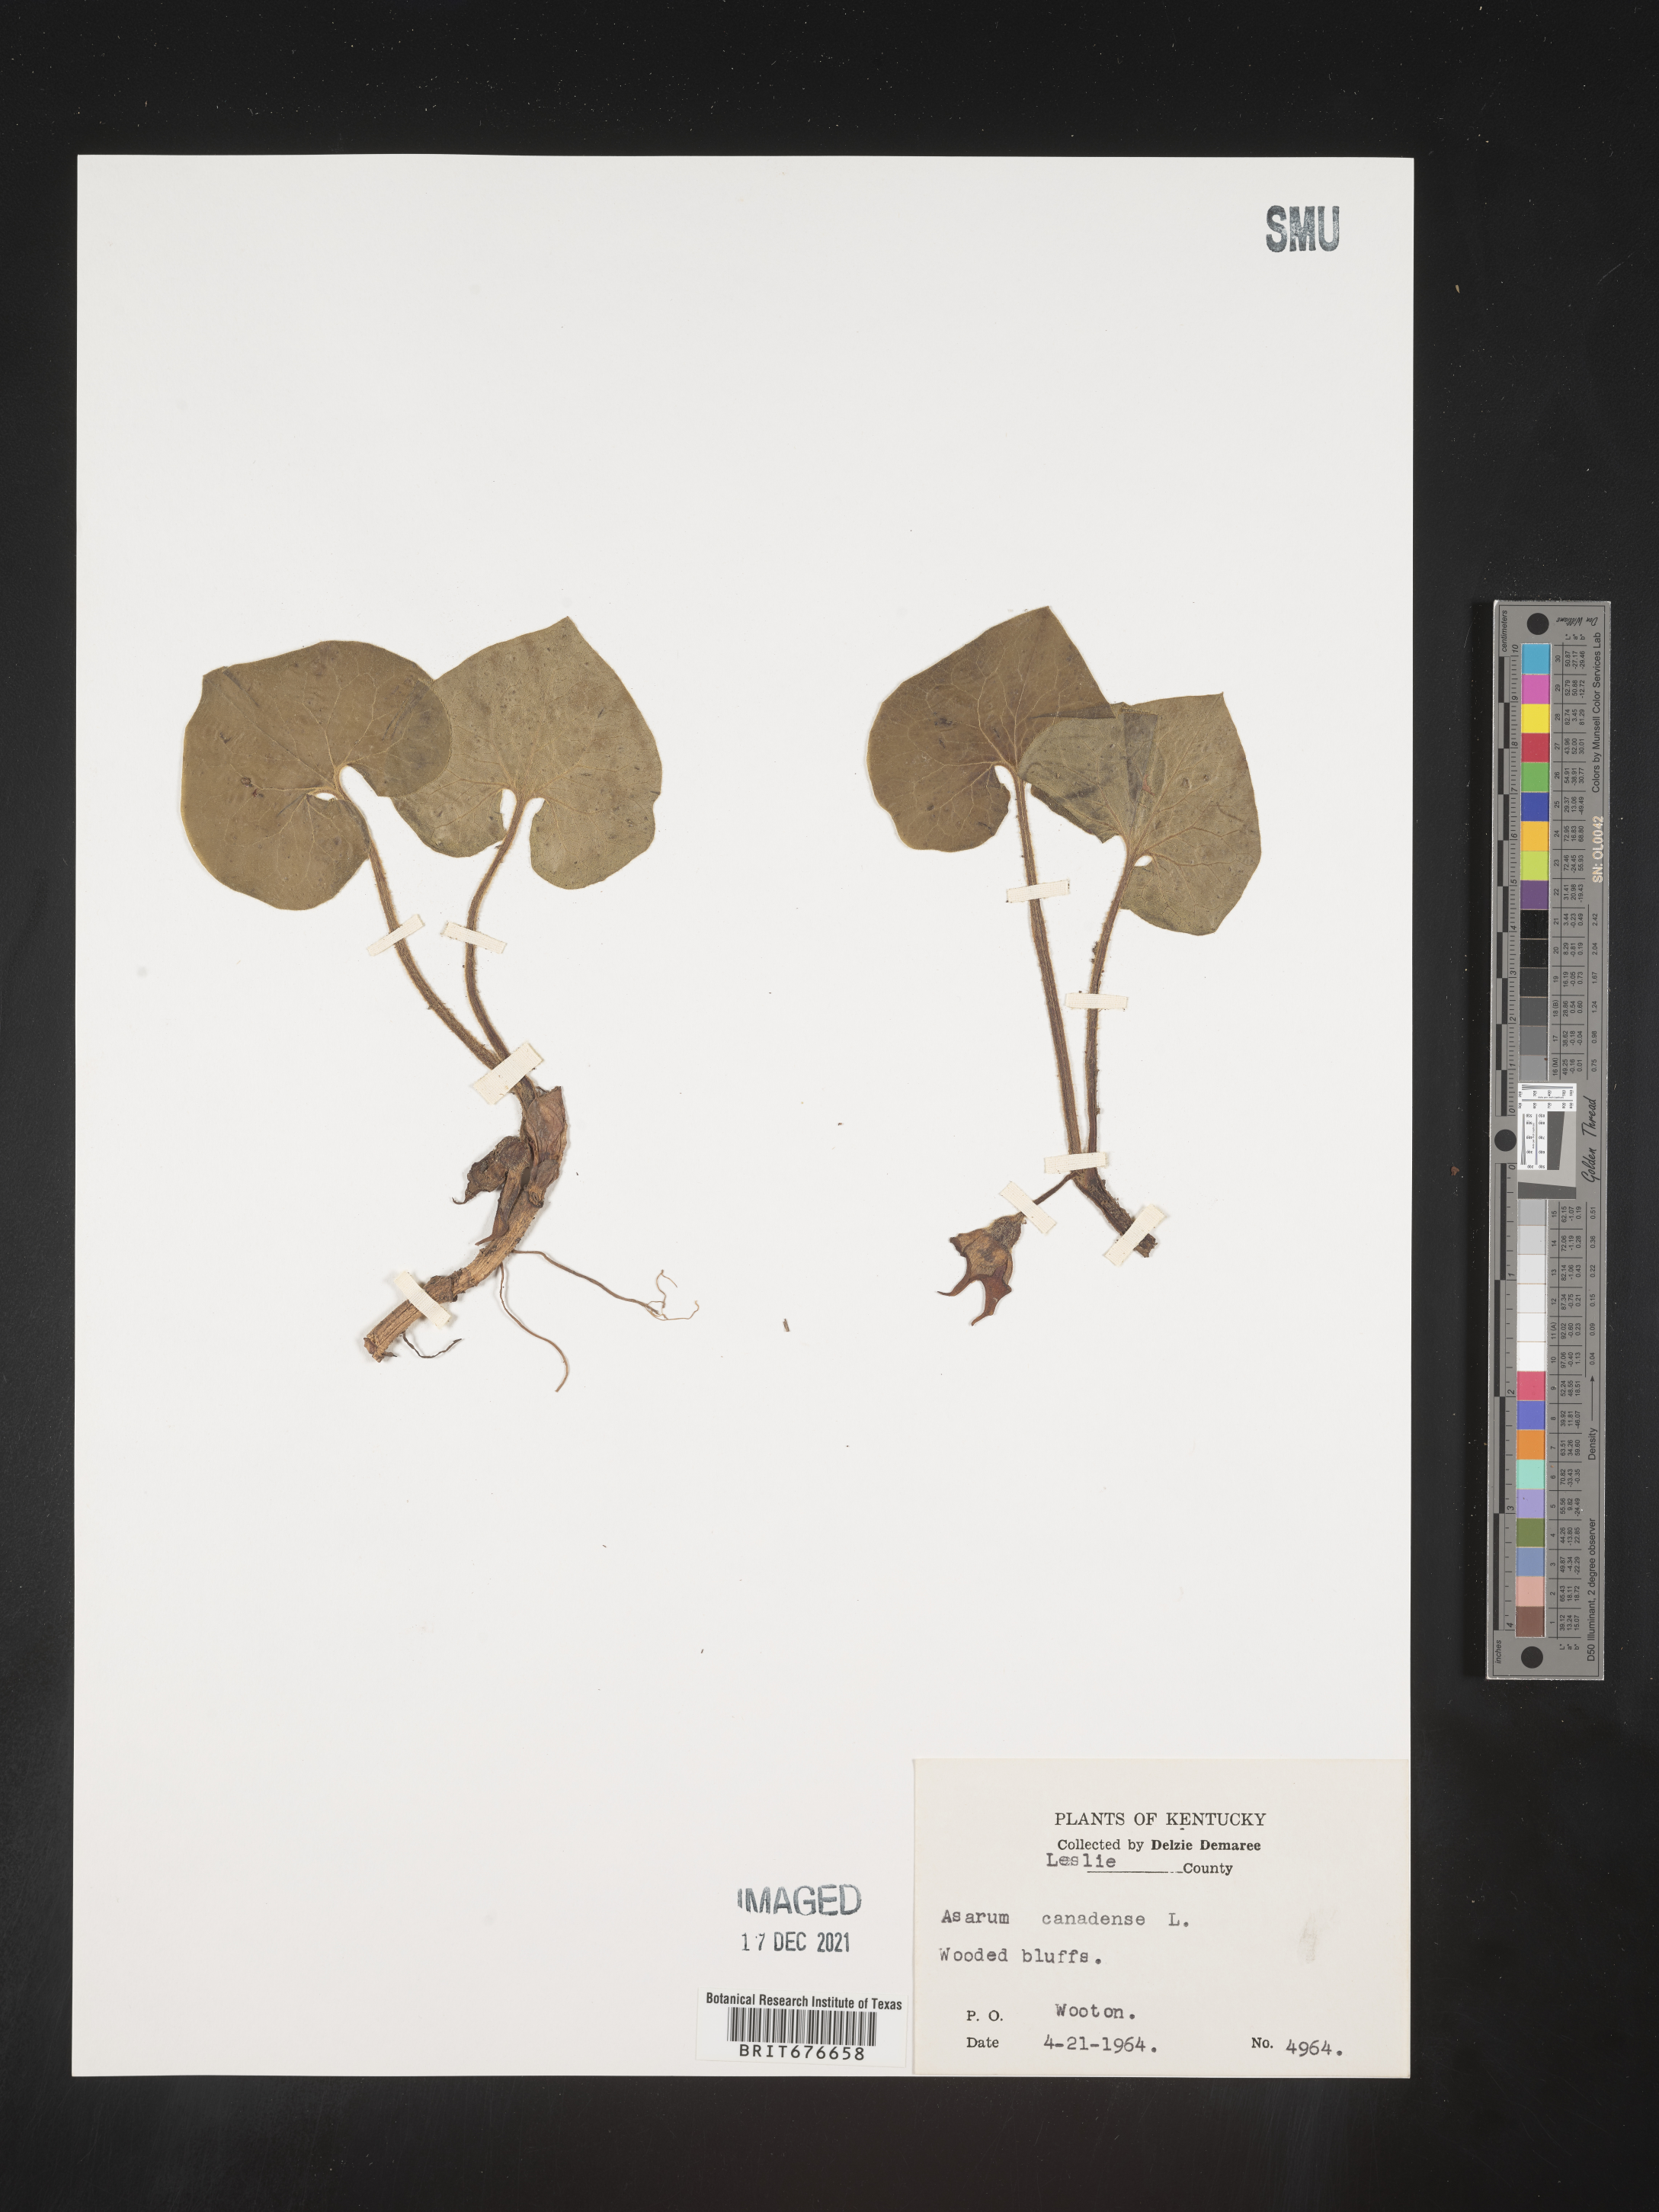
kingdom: Plantae
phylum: Tracheophyta
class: Magnoliopsida
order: Piperales
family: Aristolochiaceae
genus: Asarum
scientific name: Asarum canadense
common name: Wild ginger
